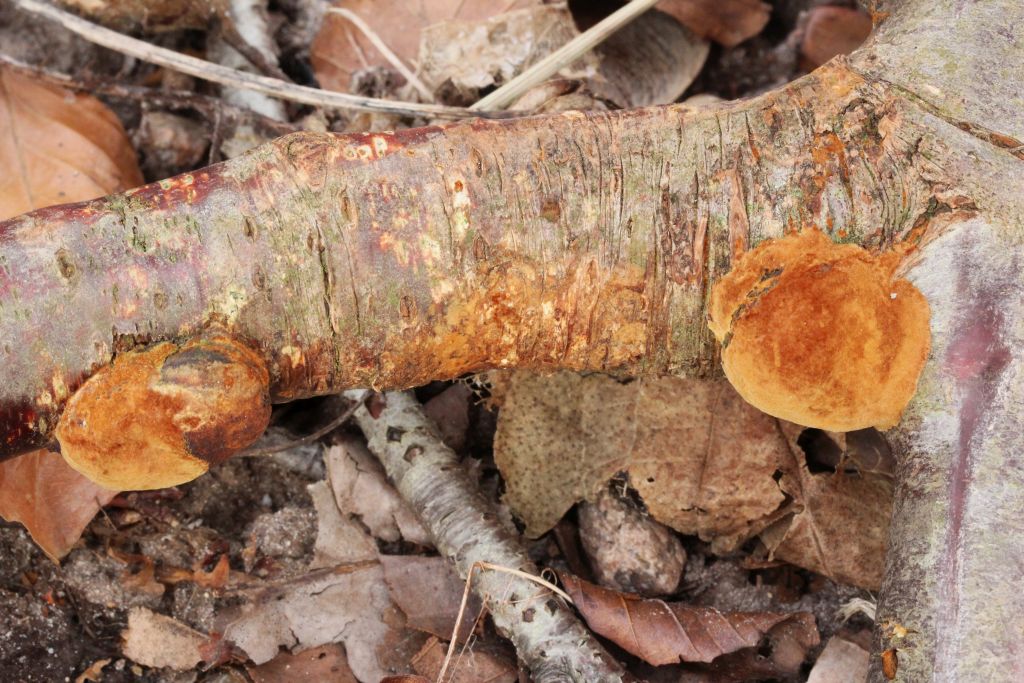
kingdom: Fungi
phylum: Basidiomycota
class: Agaricomycetes
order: Hymenochaetales
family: Hymenochaetaceae
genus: Phellinus
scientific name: Phellinus pomaceus
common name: blomme-ildporesvamp
